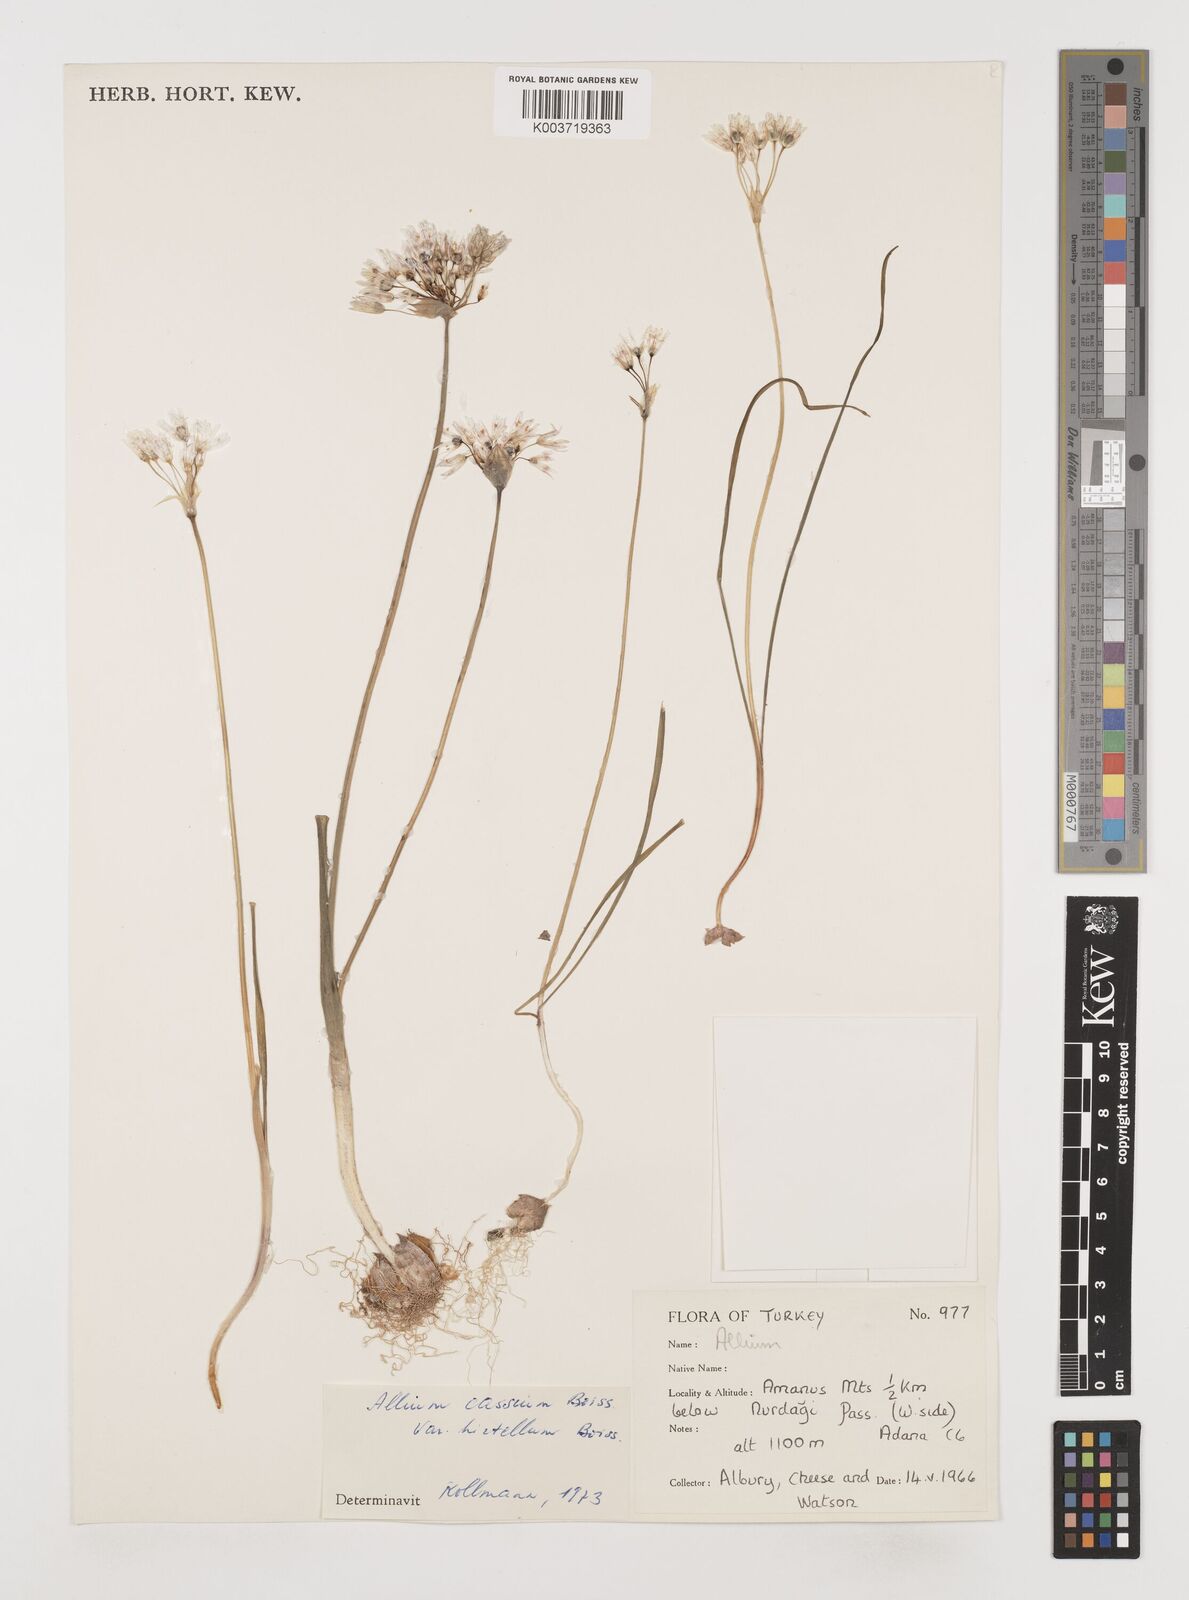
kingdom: Plantae
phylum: Tracheophyta
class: Liliopsida
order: Asparagales
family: Amaryllidaceae
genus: Allium
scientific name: Allium cassium
